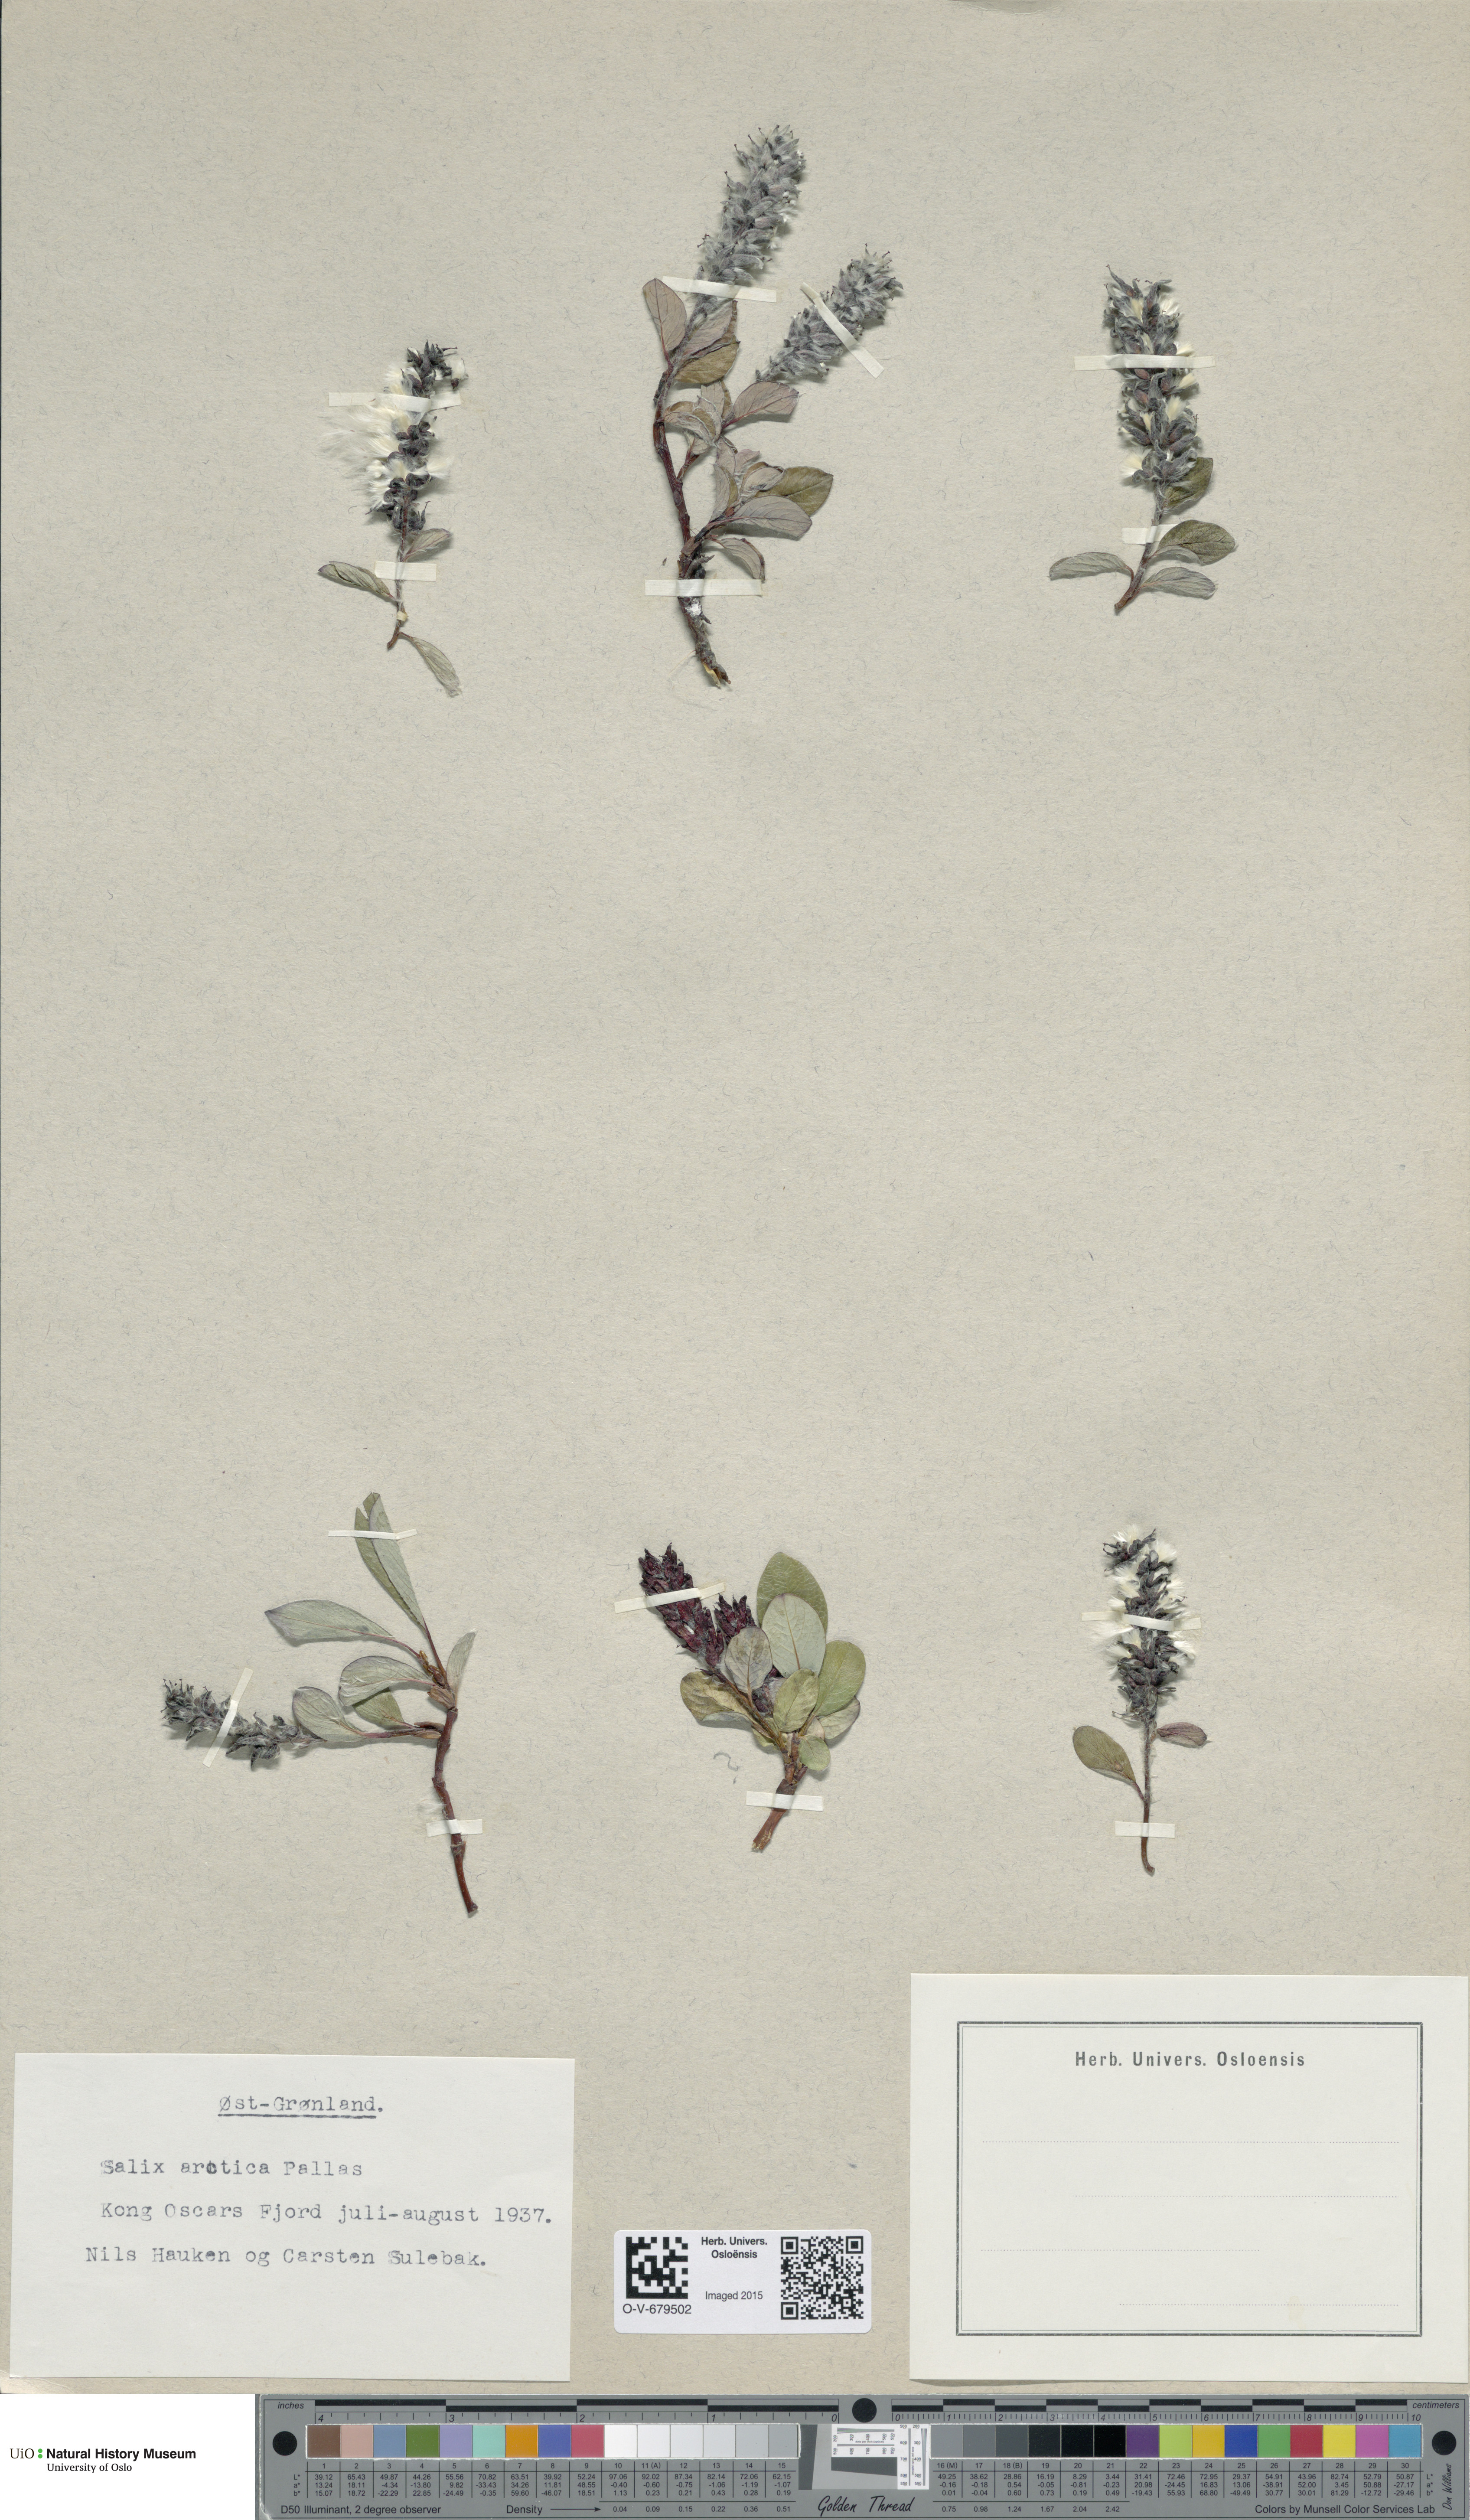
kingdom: Plantae
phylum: Tracheophyta
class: Magnoliopsida
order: Malpighiales
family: Salicaceae
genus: Salix
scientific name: Salix arctica
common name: Arctic willow
